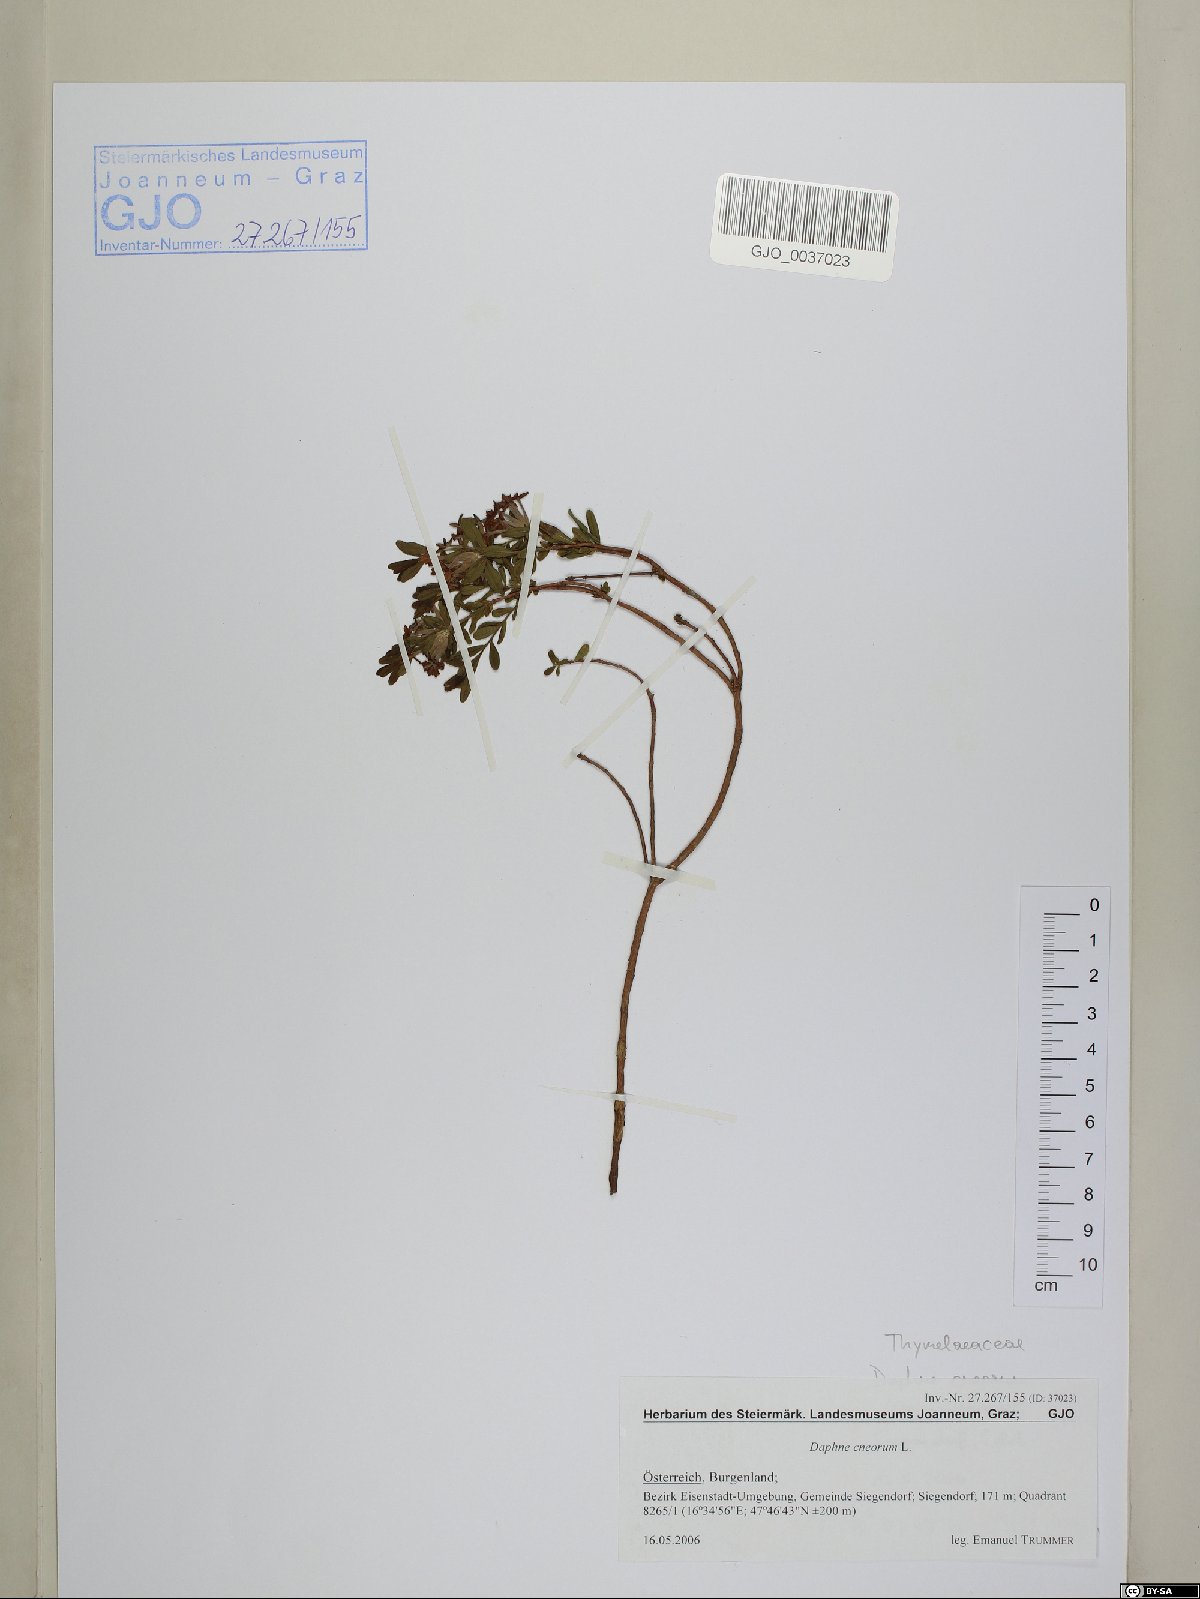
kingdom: Plantae
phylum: Tracheophyta
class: Magnoliopsida
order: Malvales
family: Thymelaeaceae
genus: Daphne
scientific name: Daphne cneorum
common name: Garland-flower
